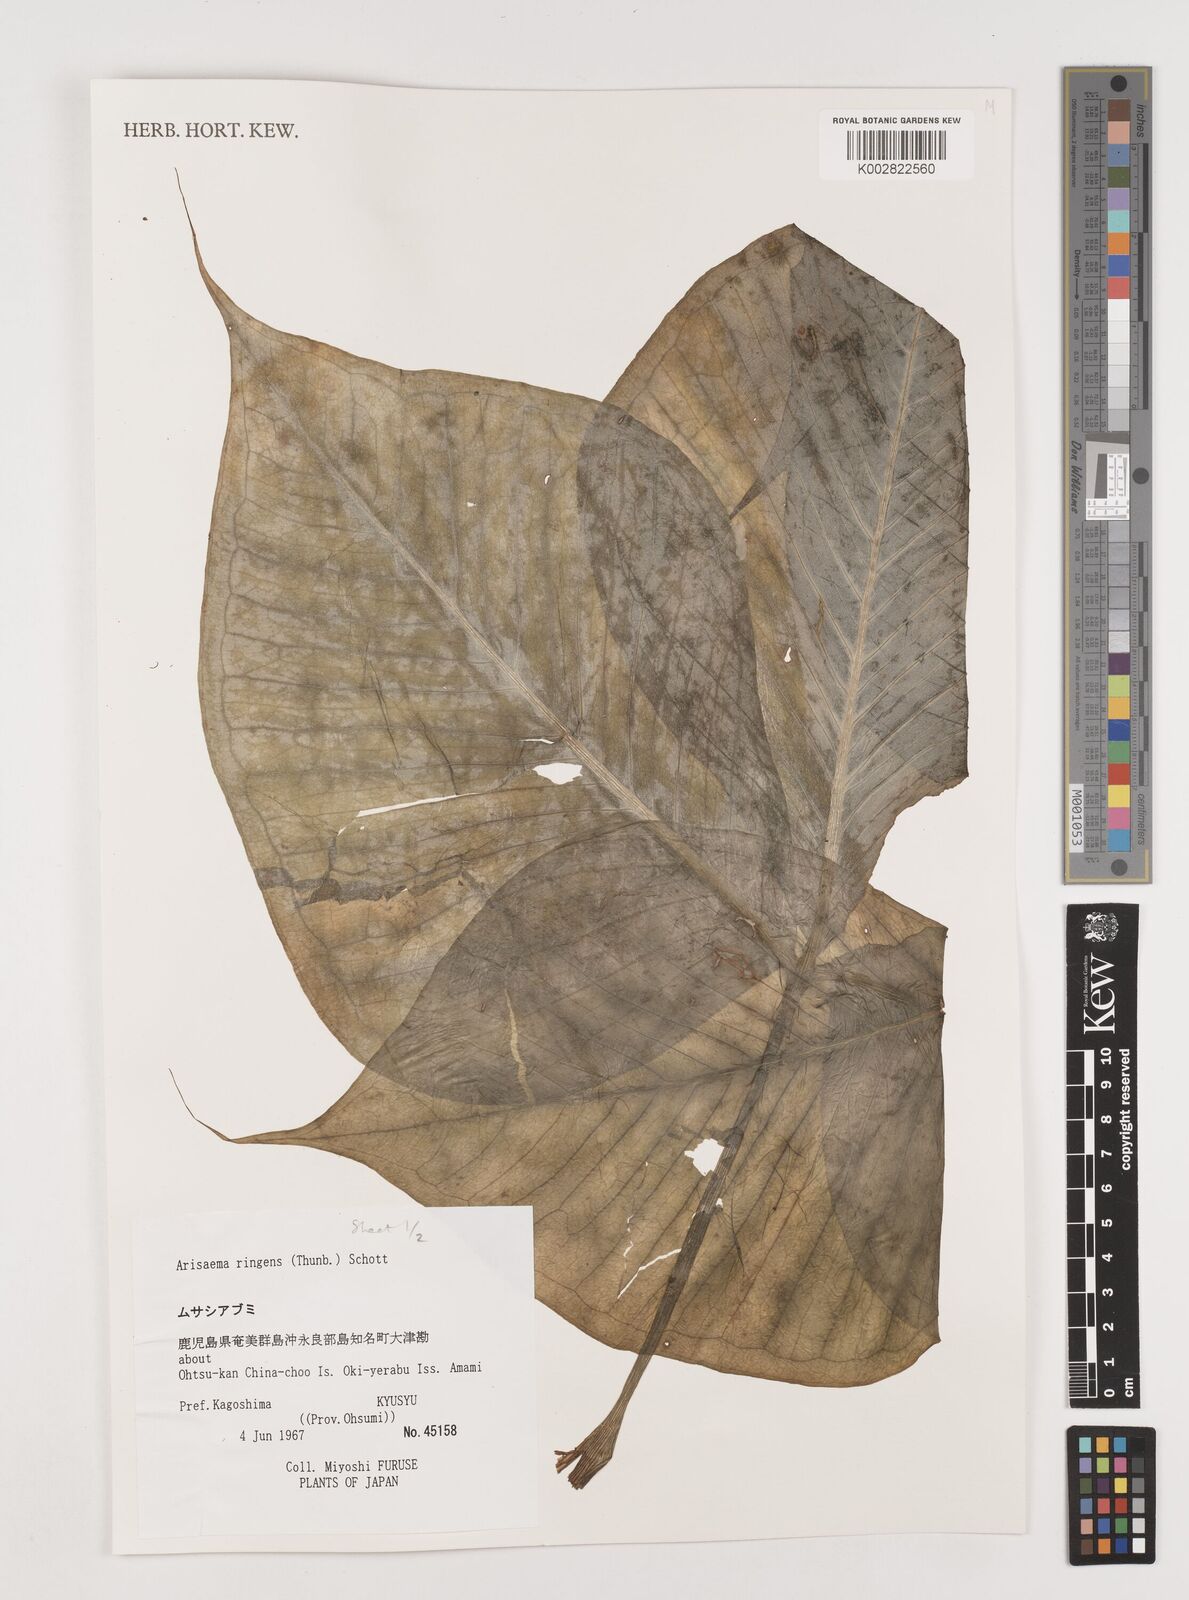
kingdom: Plantae
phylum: Tracheophyta
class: Liliopsida
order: Alismatales
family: Araceae
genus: Arisaema
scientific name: Arisaema ringens
